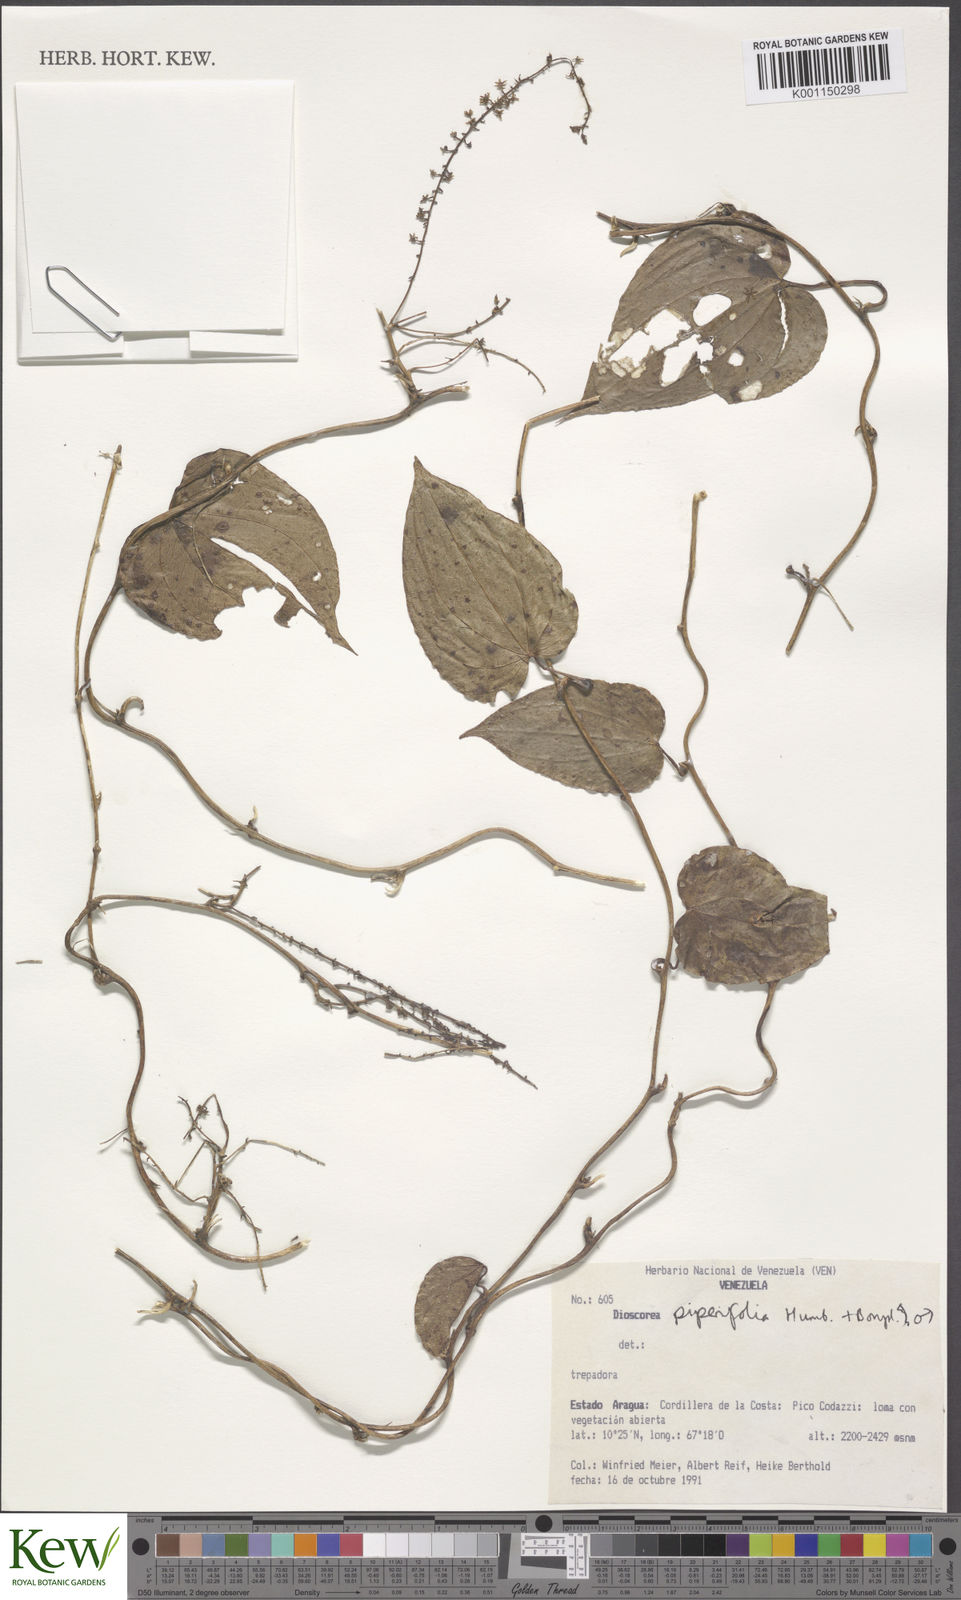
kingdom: Plantae
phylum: Tracheophyta
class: Liliopsida
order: Dioscoreales
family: Dioscoreaceae
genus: Dioscorea
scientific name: Dioscorea piperifolia
